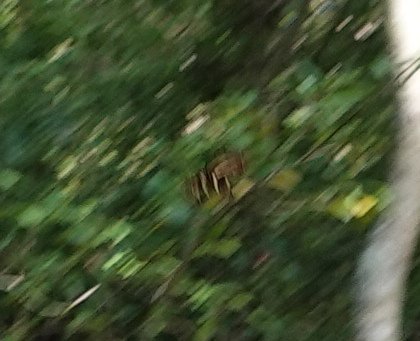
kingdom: Animalia
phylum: Arthropoda
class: Insecta
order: Lepidoptera
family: Nymphalidae
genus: Heliconius
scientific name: Heliconius charithonia
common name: Zebra Longwing
